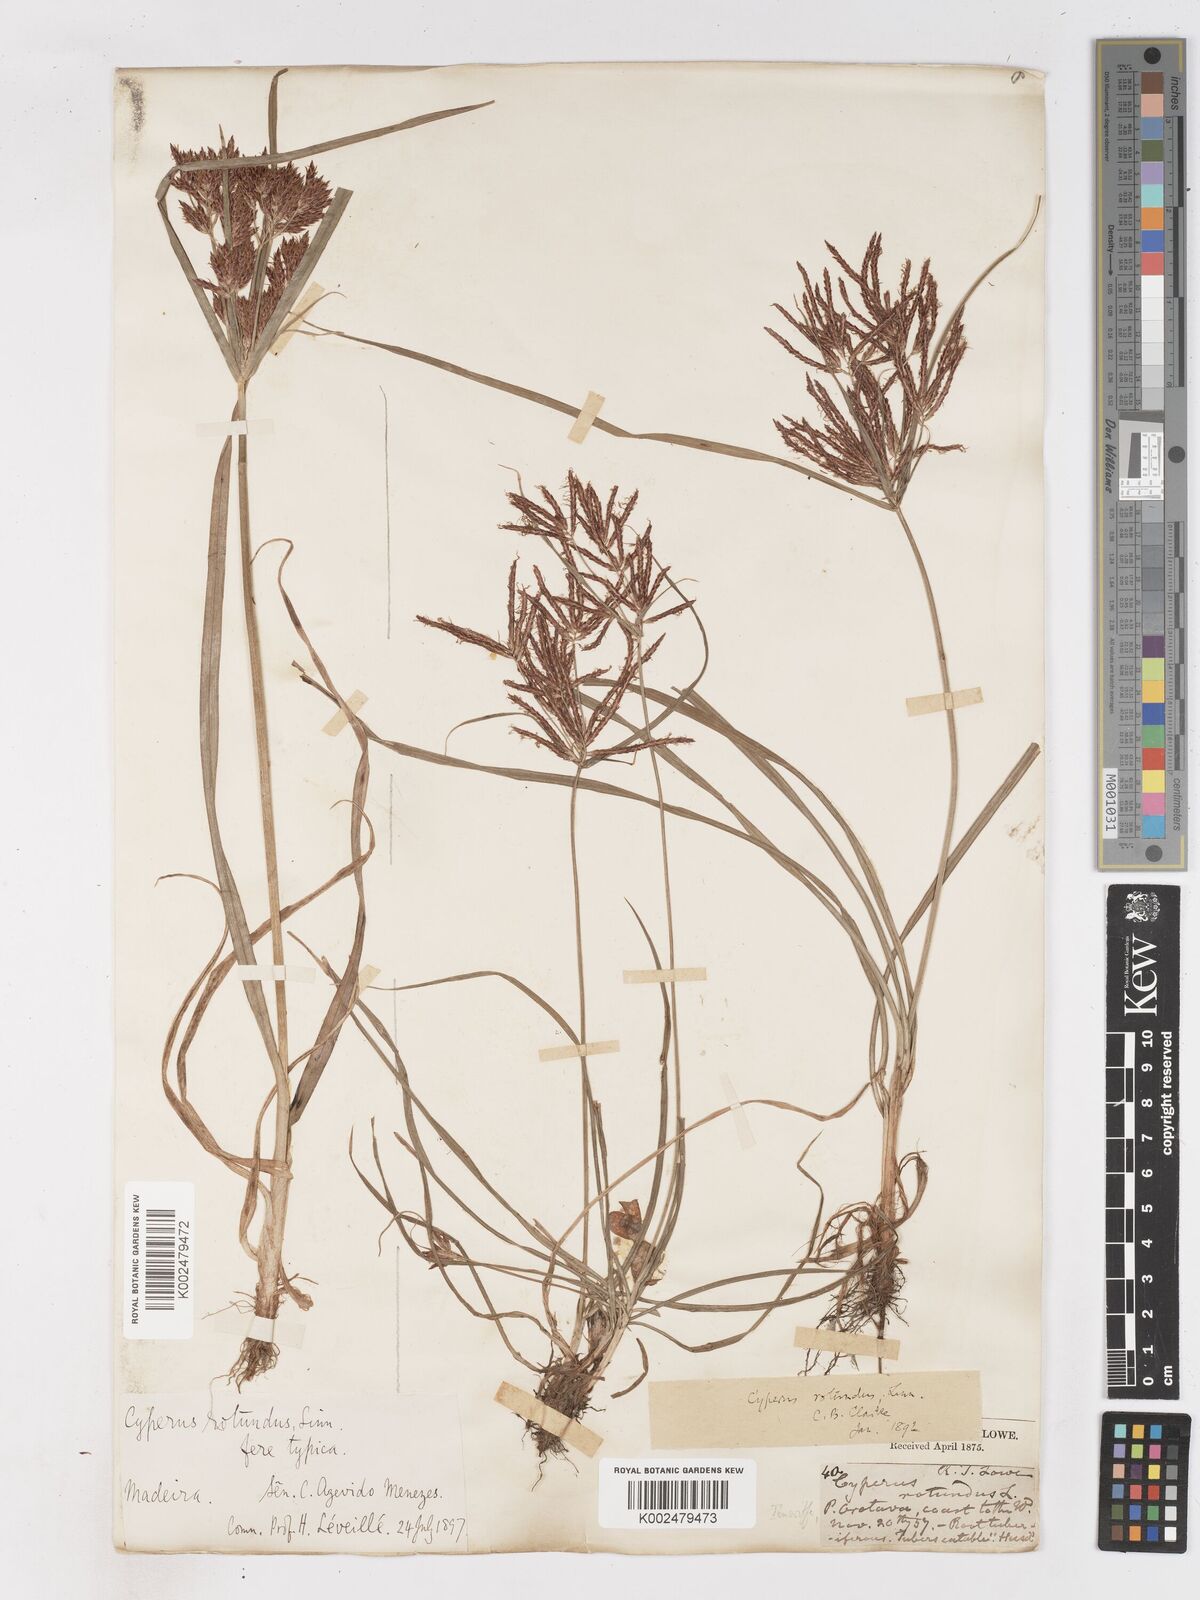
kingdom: Plantae
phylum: Tracheophyta
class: Liliopsida
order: Poales
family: Cyperaceae
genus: Cyperus
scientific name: Cyperus rotundus
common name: Nutgrass
